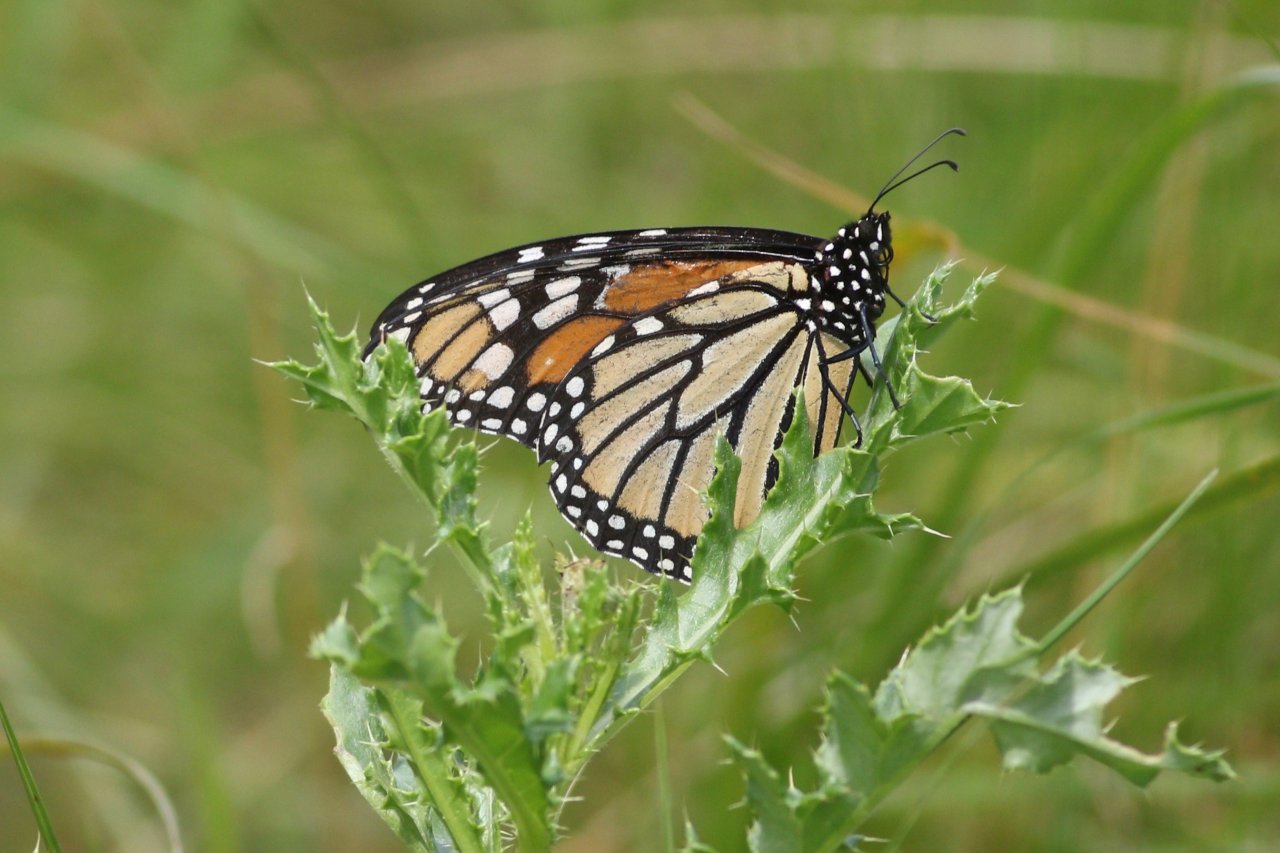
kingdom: Animalia
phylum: Arthropoda
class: Insecta
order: Lepidoptera
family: Nymphalidae
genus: Danaus
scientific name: Danaus plexippus
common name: Monarch
